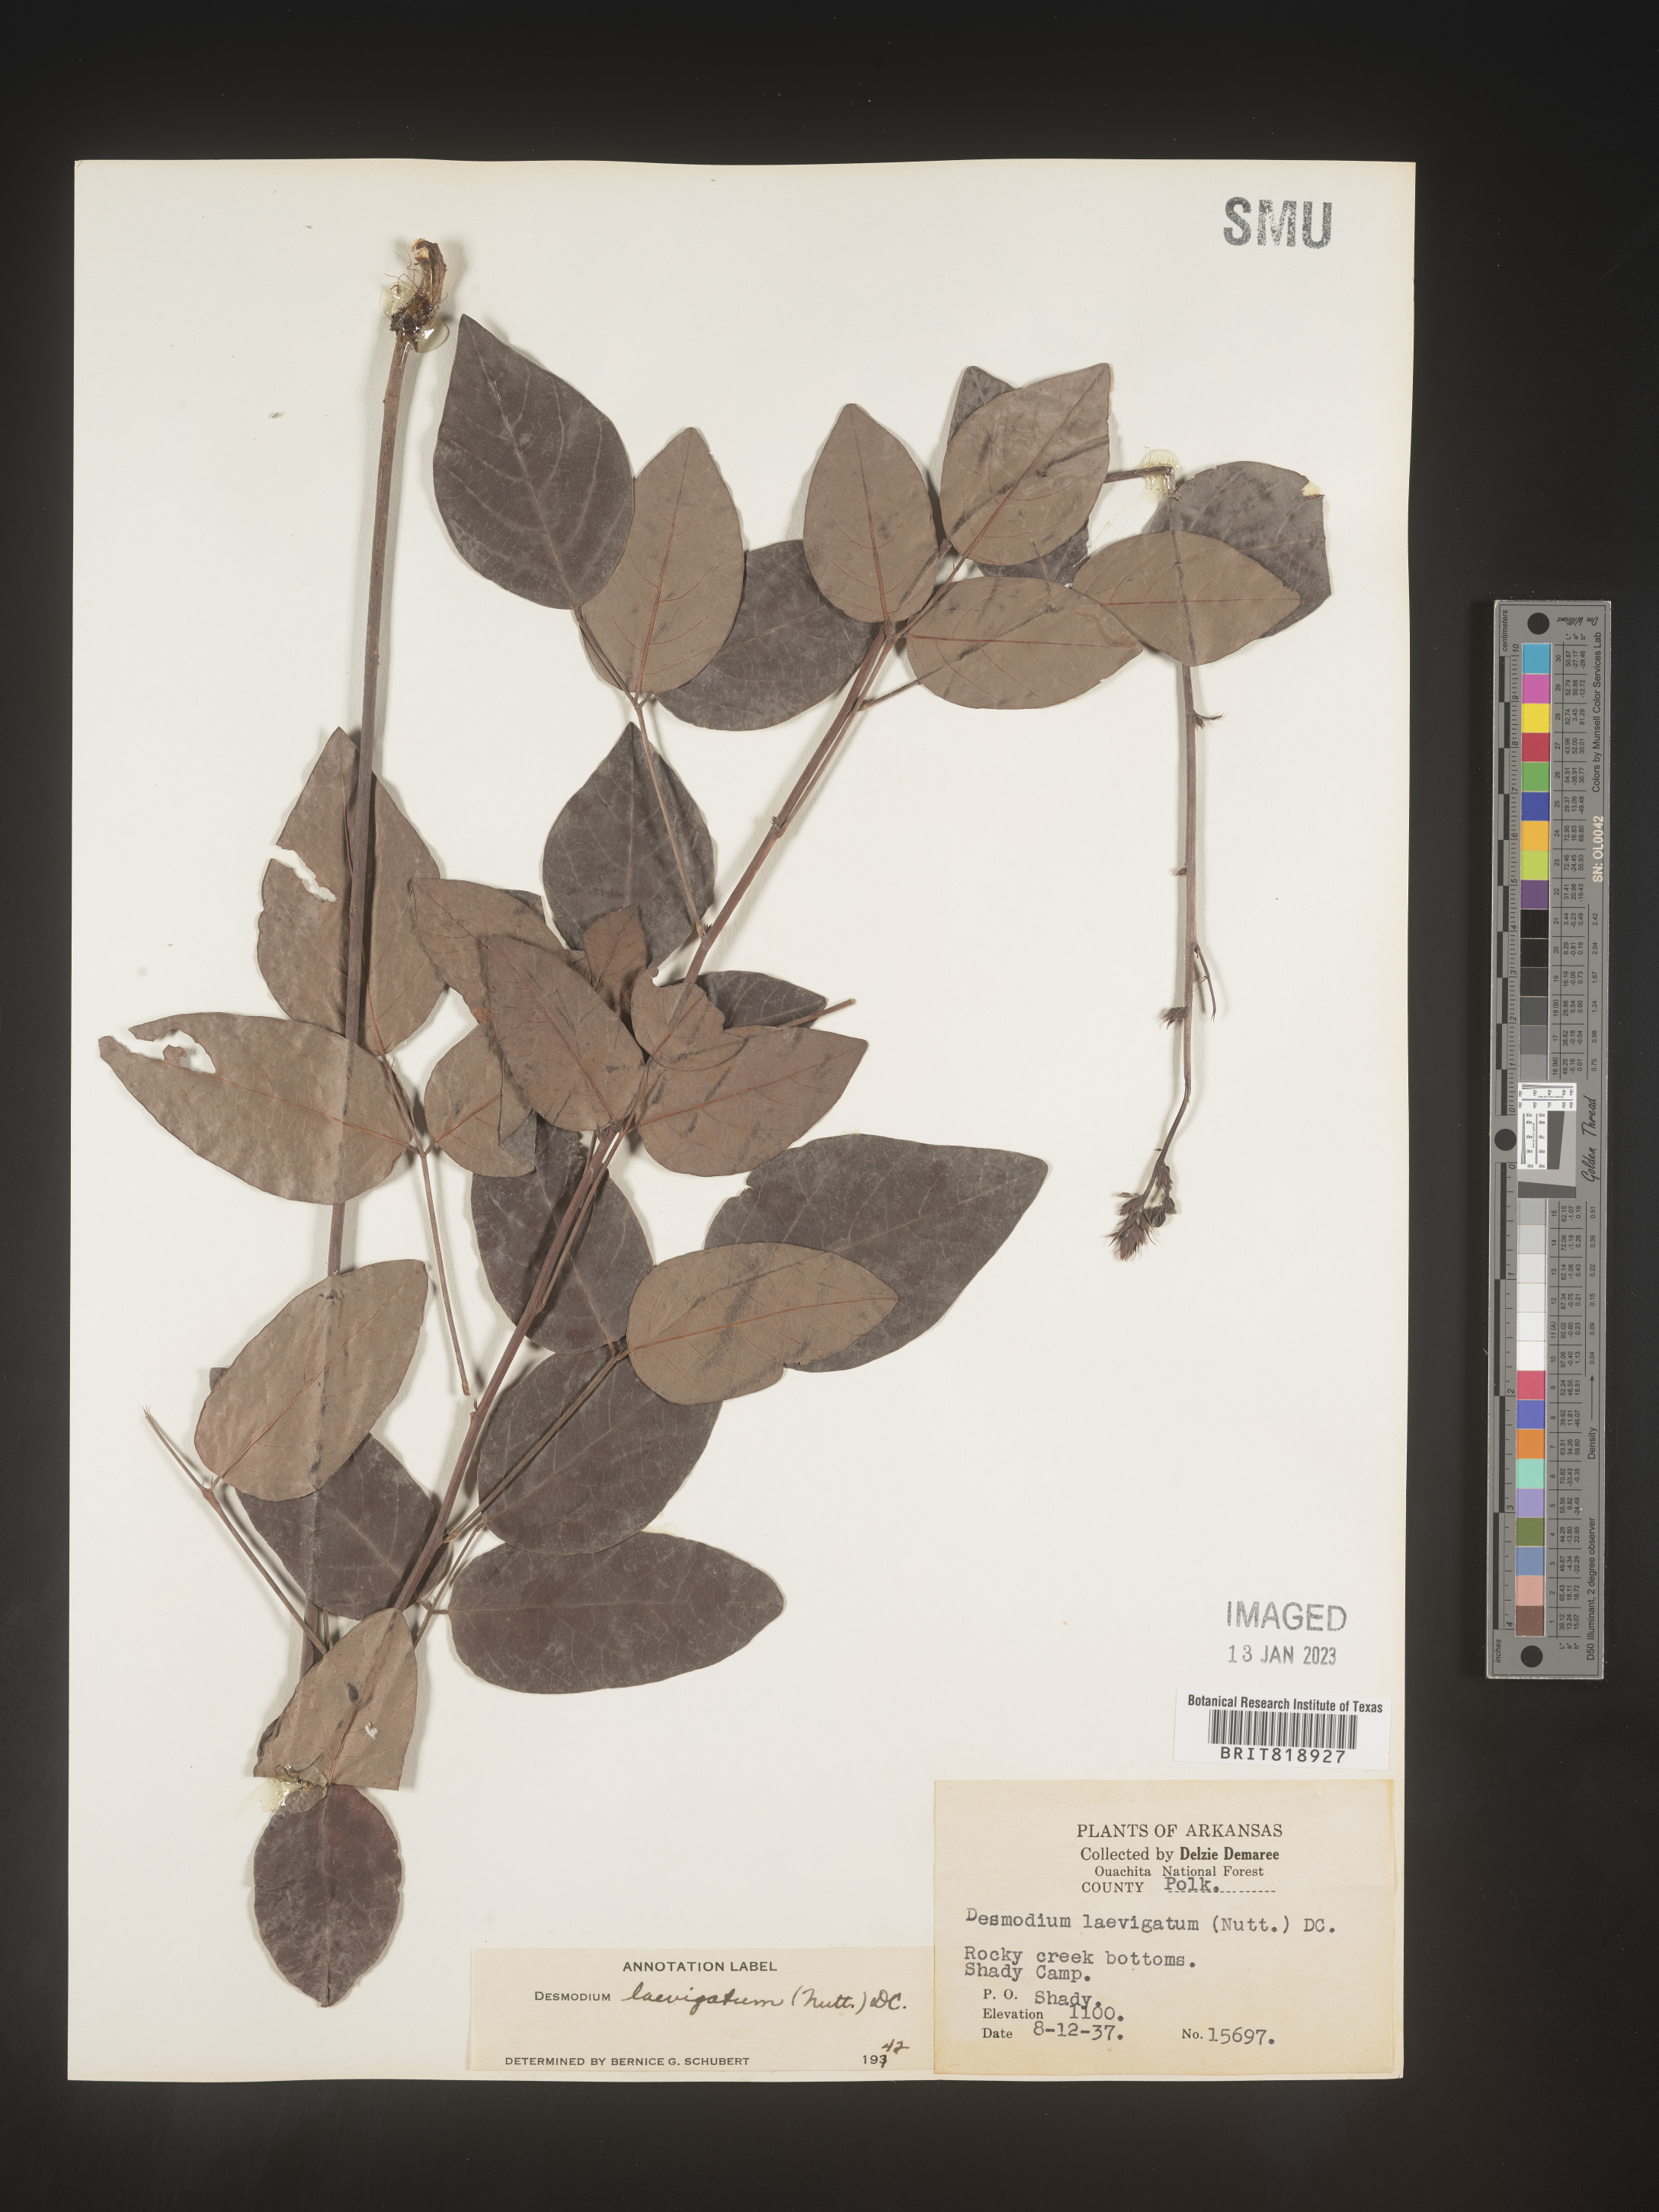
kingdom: Plantae
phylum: Tracheophyta
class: Magnoliopsida
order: Fabales
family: Fabaceae
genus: Desmodium
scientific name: Desmodium laevigatum
